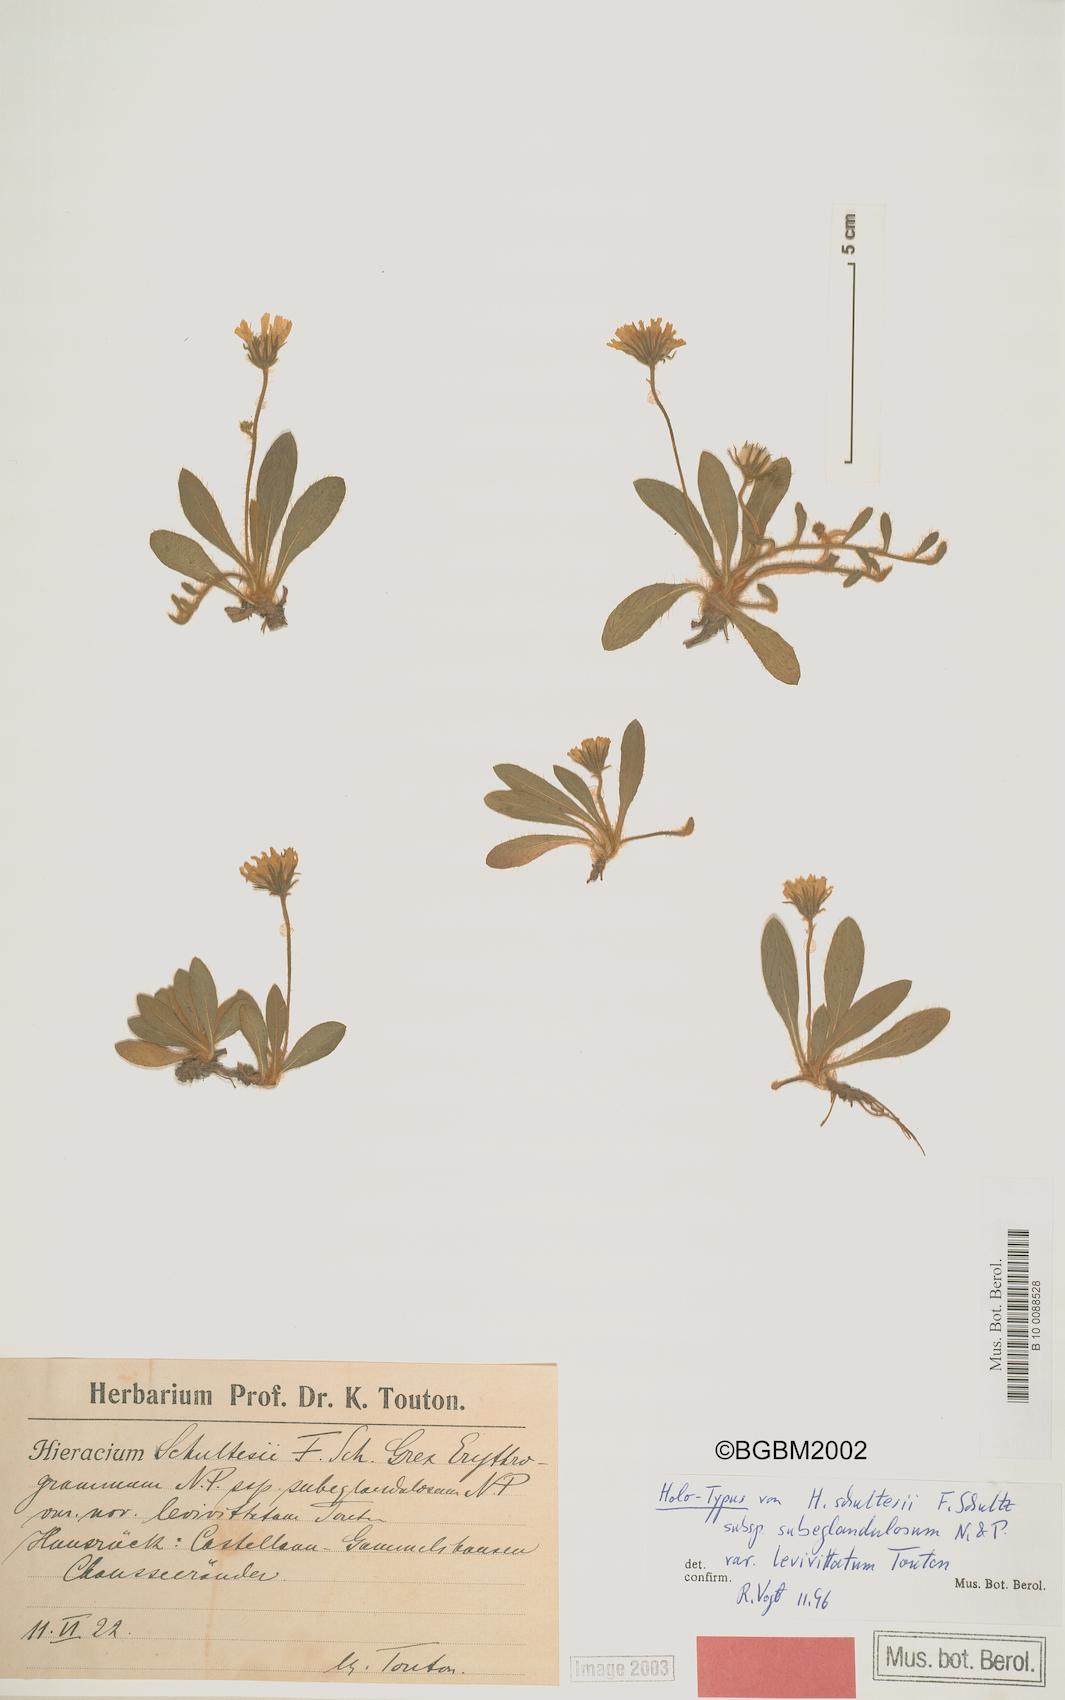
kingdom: Plantae
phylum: Tracheophyta
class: Magnoliopsida
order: Asterales
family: Asteraceae
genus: Pilosella
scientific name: Pilosella schultesii
